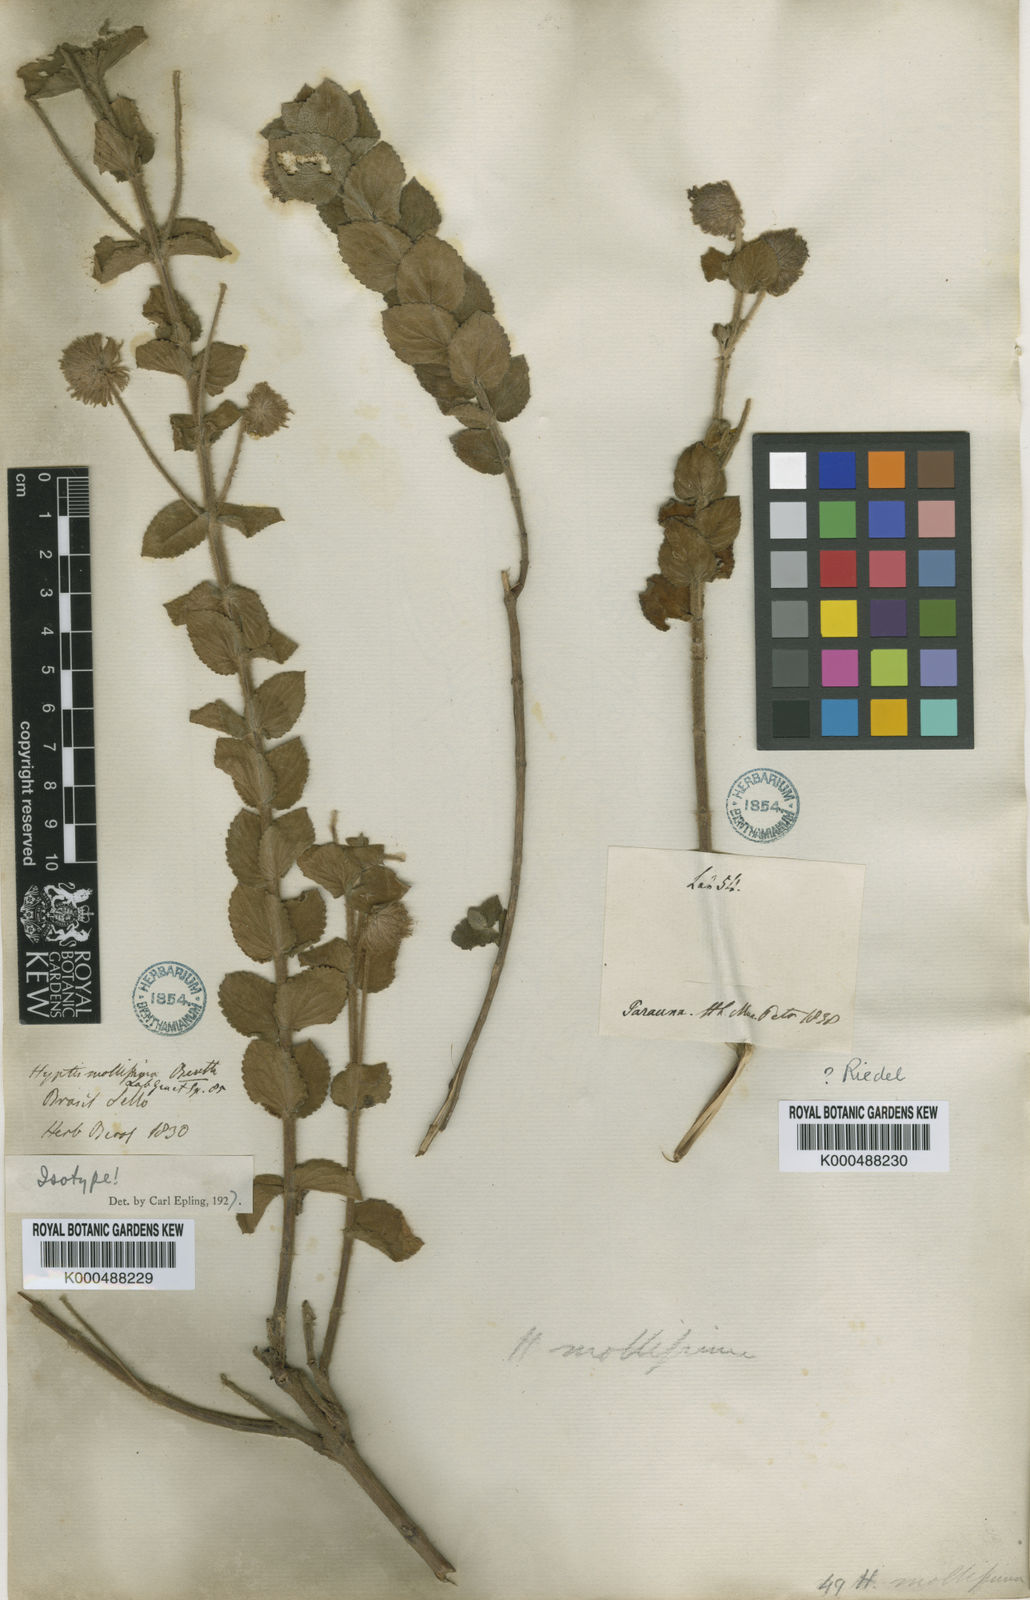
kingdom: Plantae
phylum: Tracheophyta
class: Magnoliopsida
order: Lamiales
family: Lamiaceae
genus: Medusantha
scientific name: Medusantha mollissima
